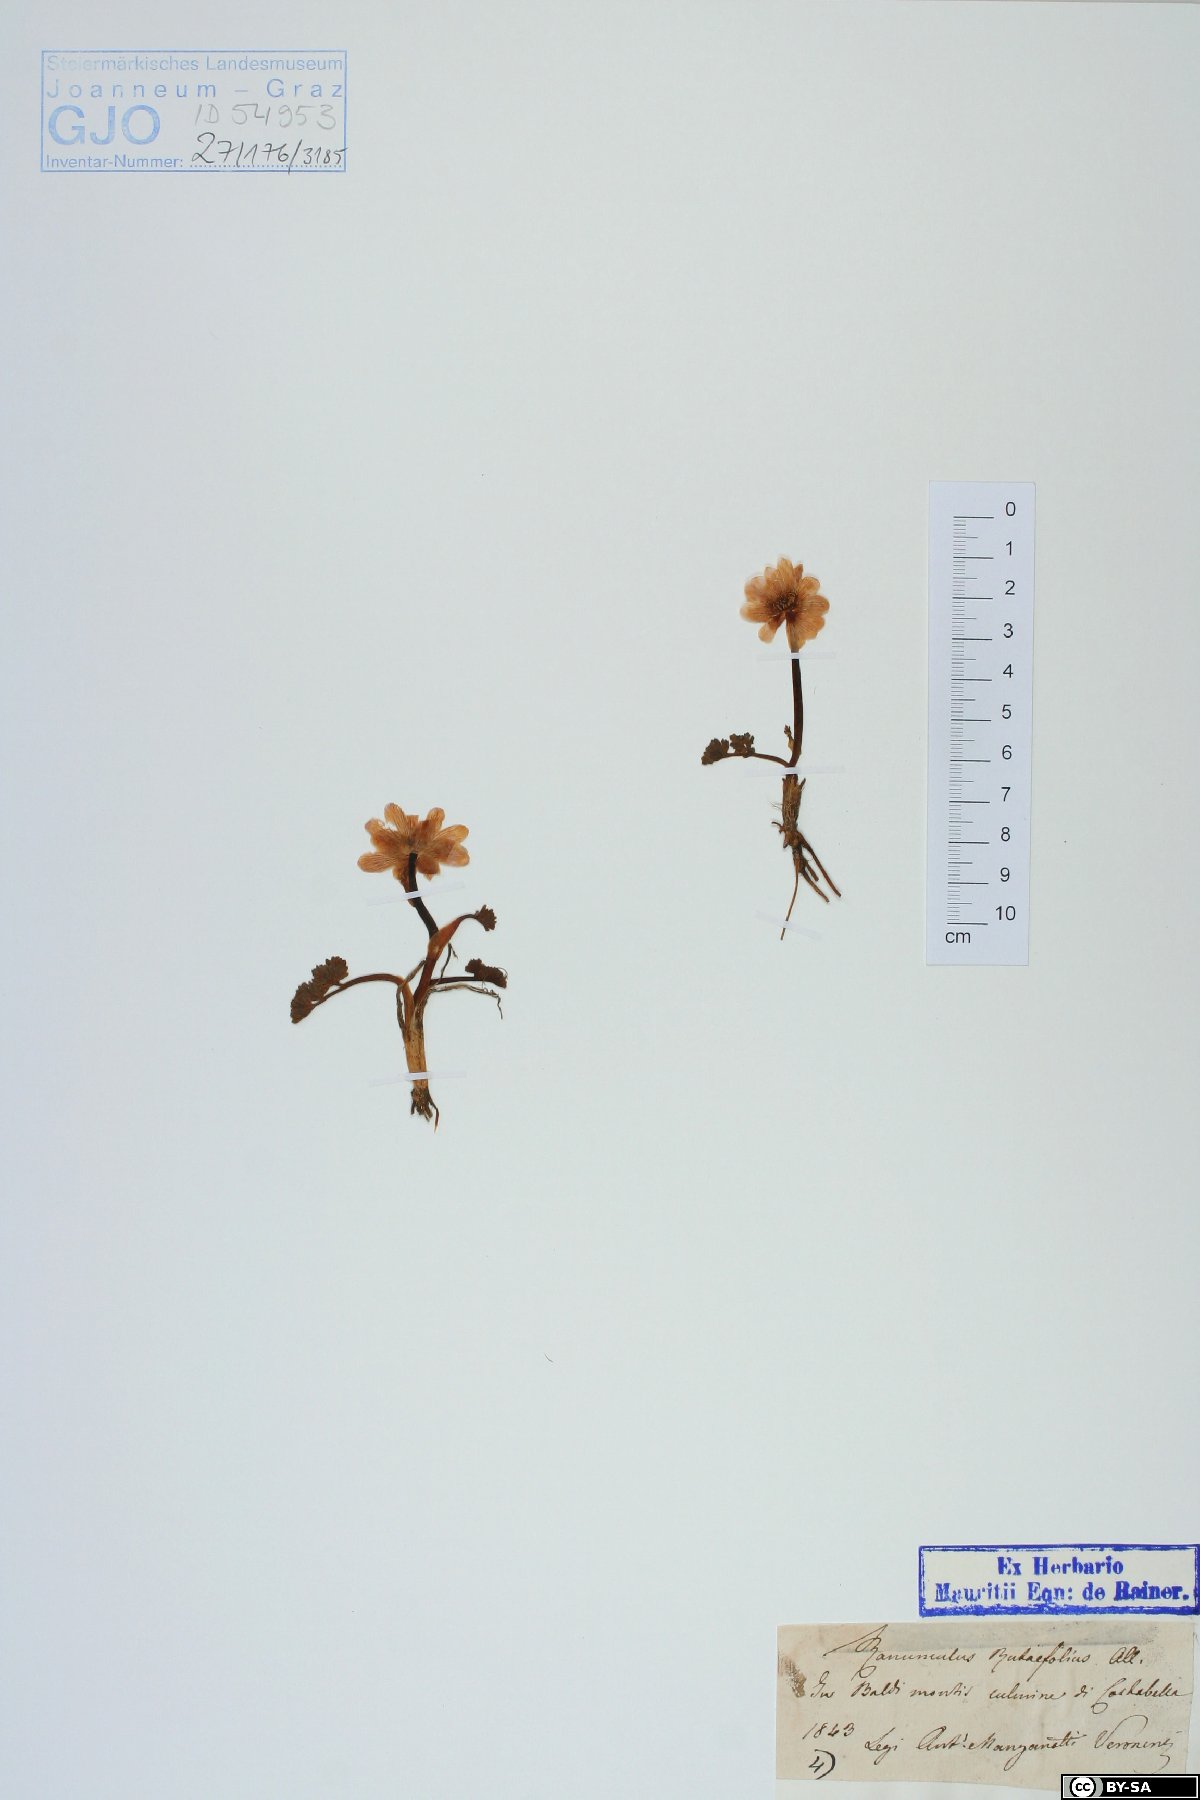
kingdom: Plantae
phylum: Tracheophyta
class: Magnoliopsida
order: Ranunculales
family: Ranunculaceae
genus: Callianthemum
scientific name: Callianthemum anemonoides
